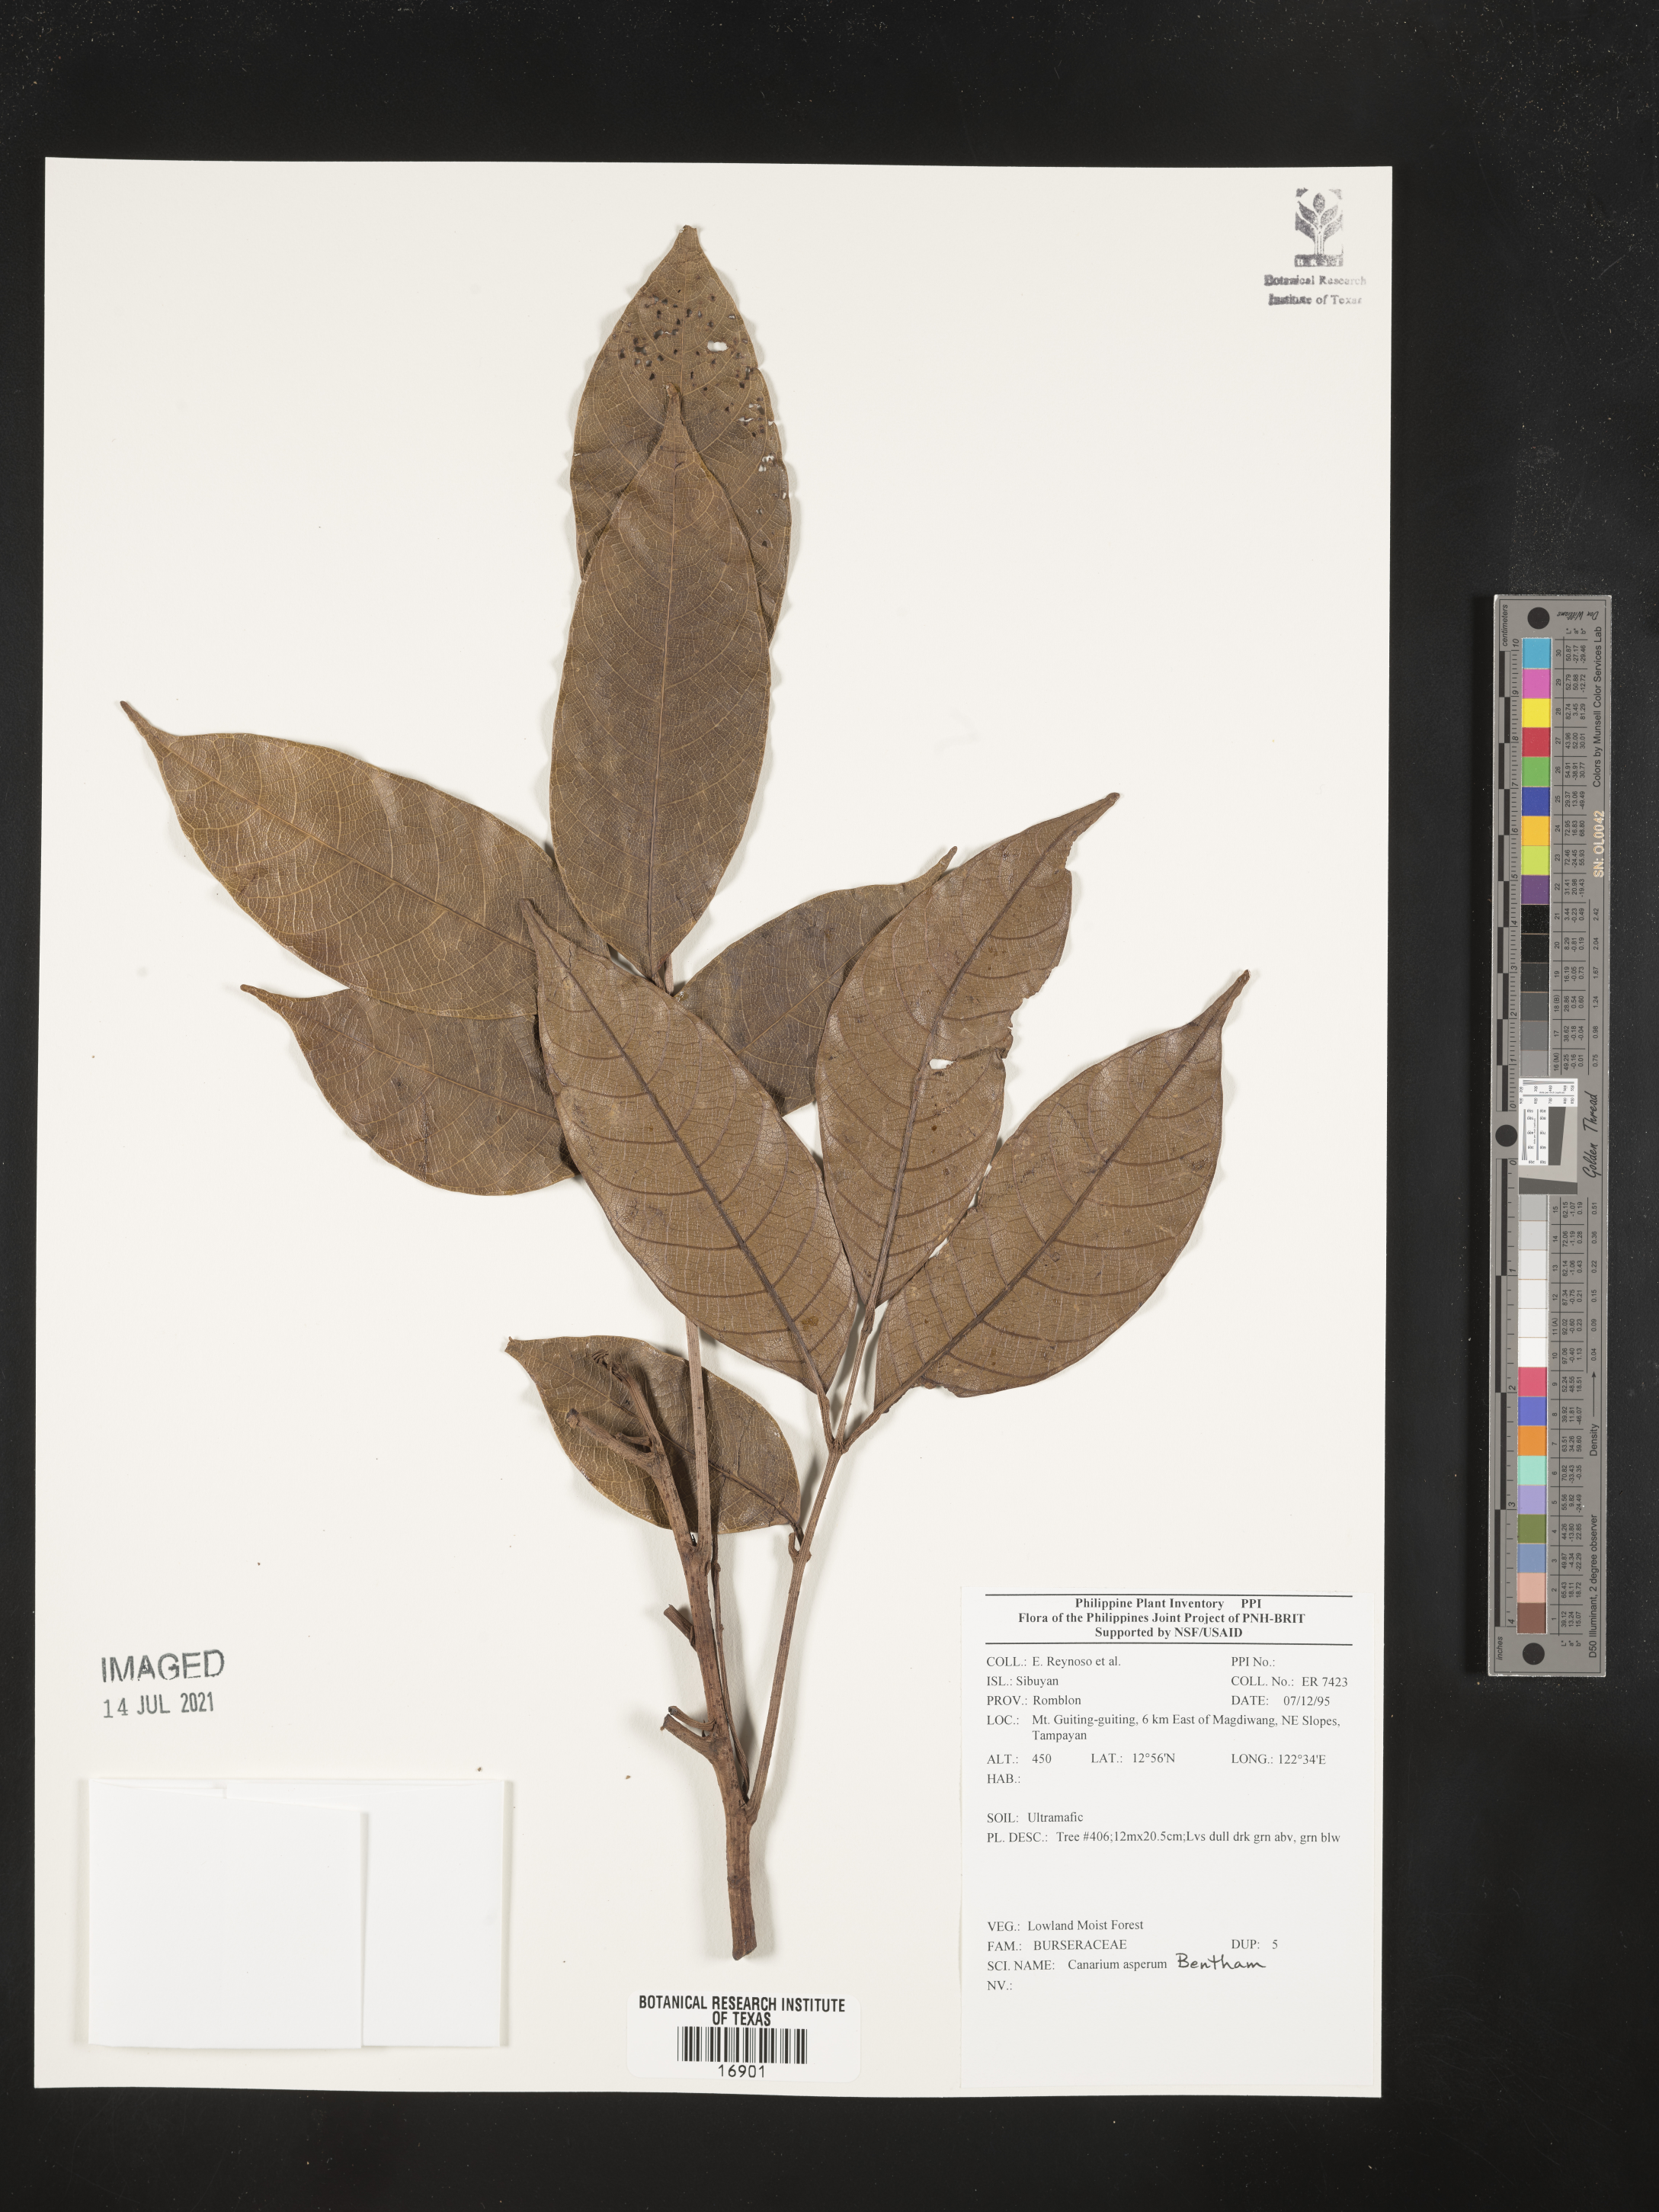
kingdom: Plantae
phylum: Tracheophyta
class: Magnoliopsida
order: Sapindales
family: Burseraceae
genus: Canarium
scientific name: Canarium asperum
